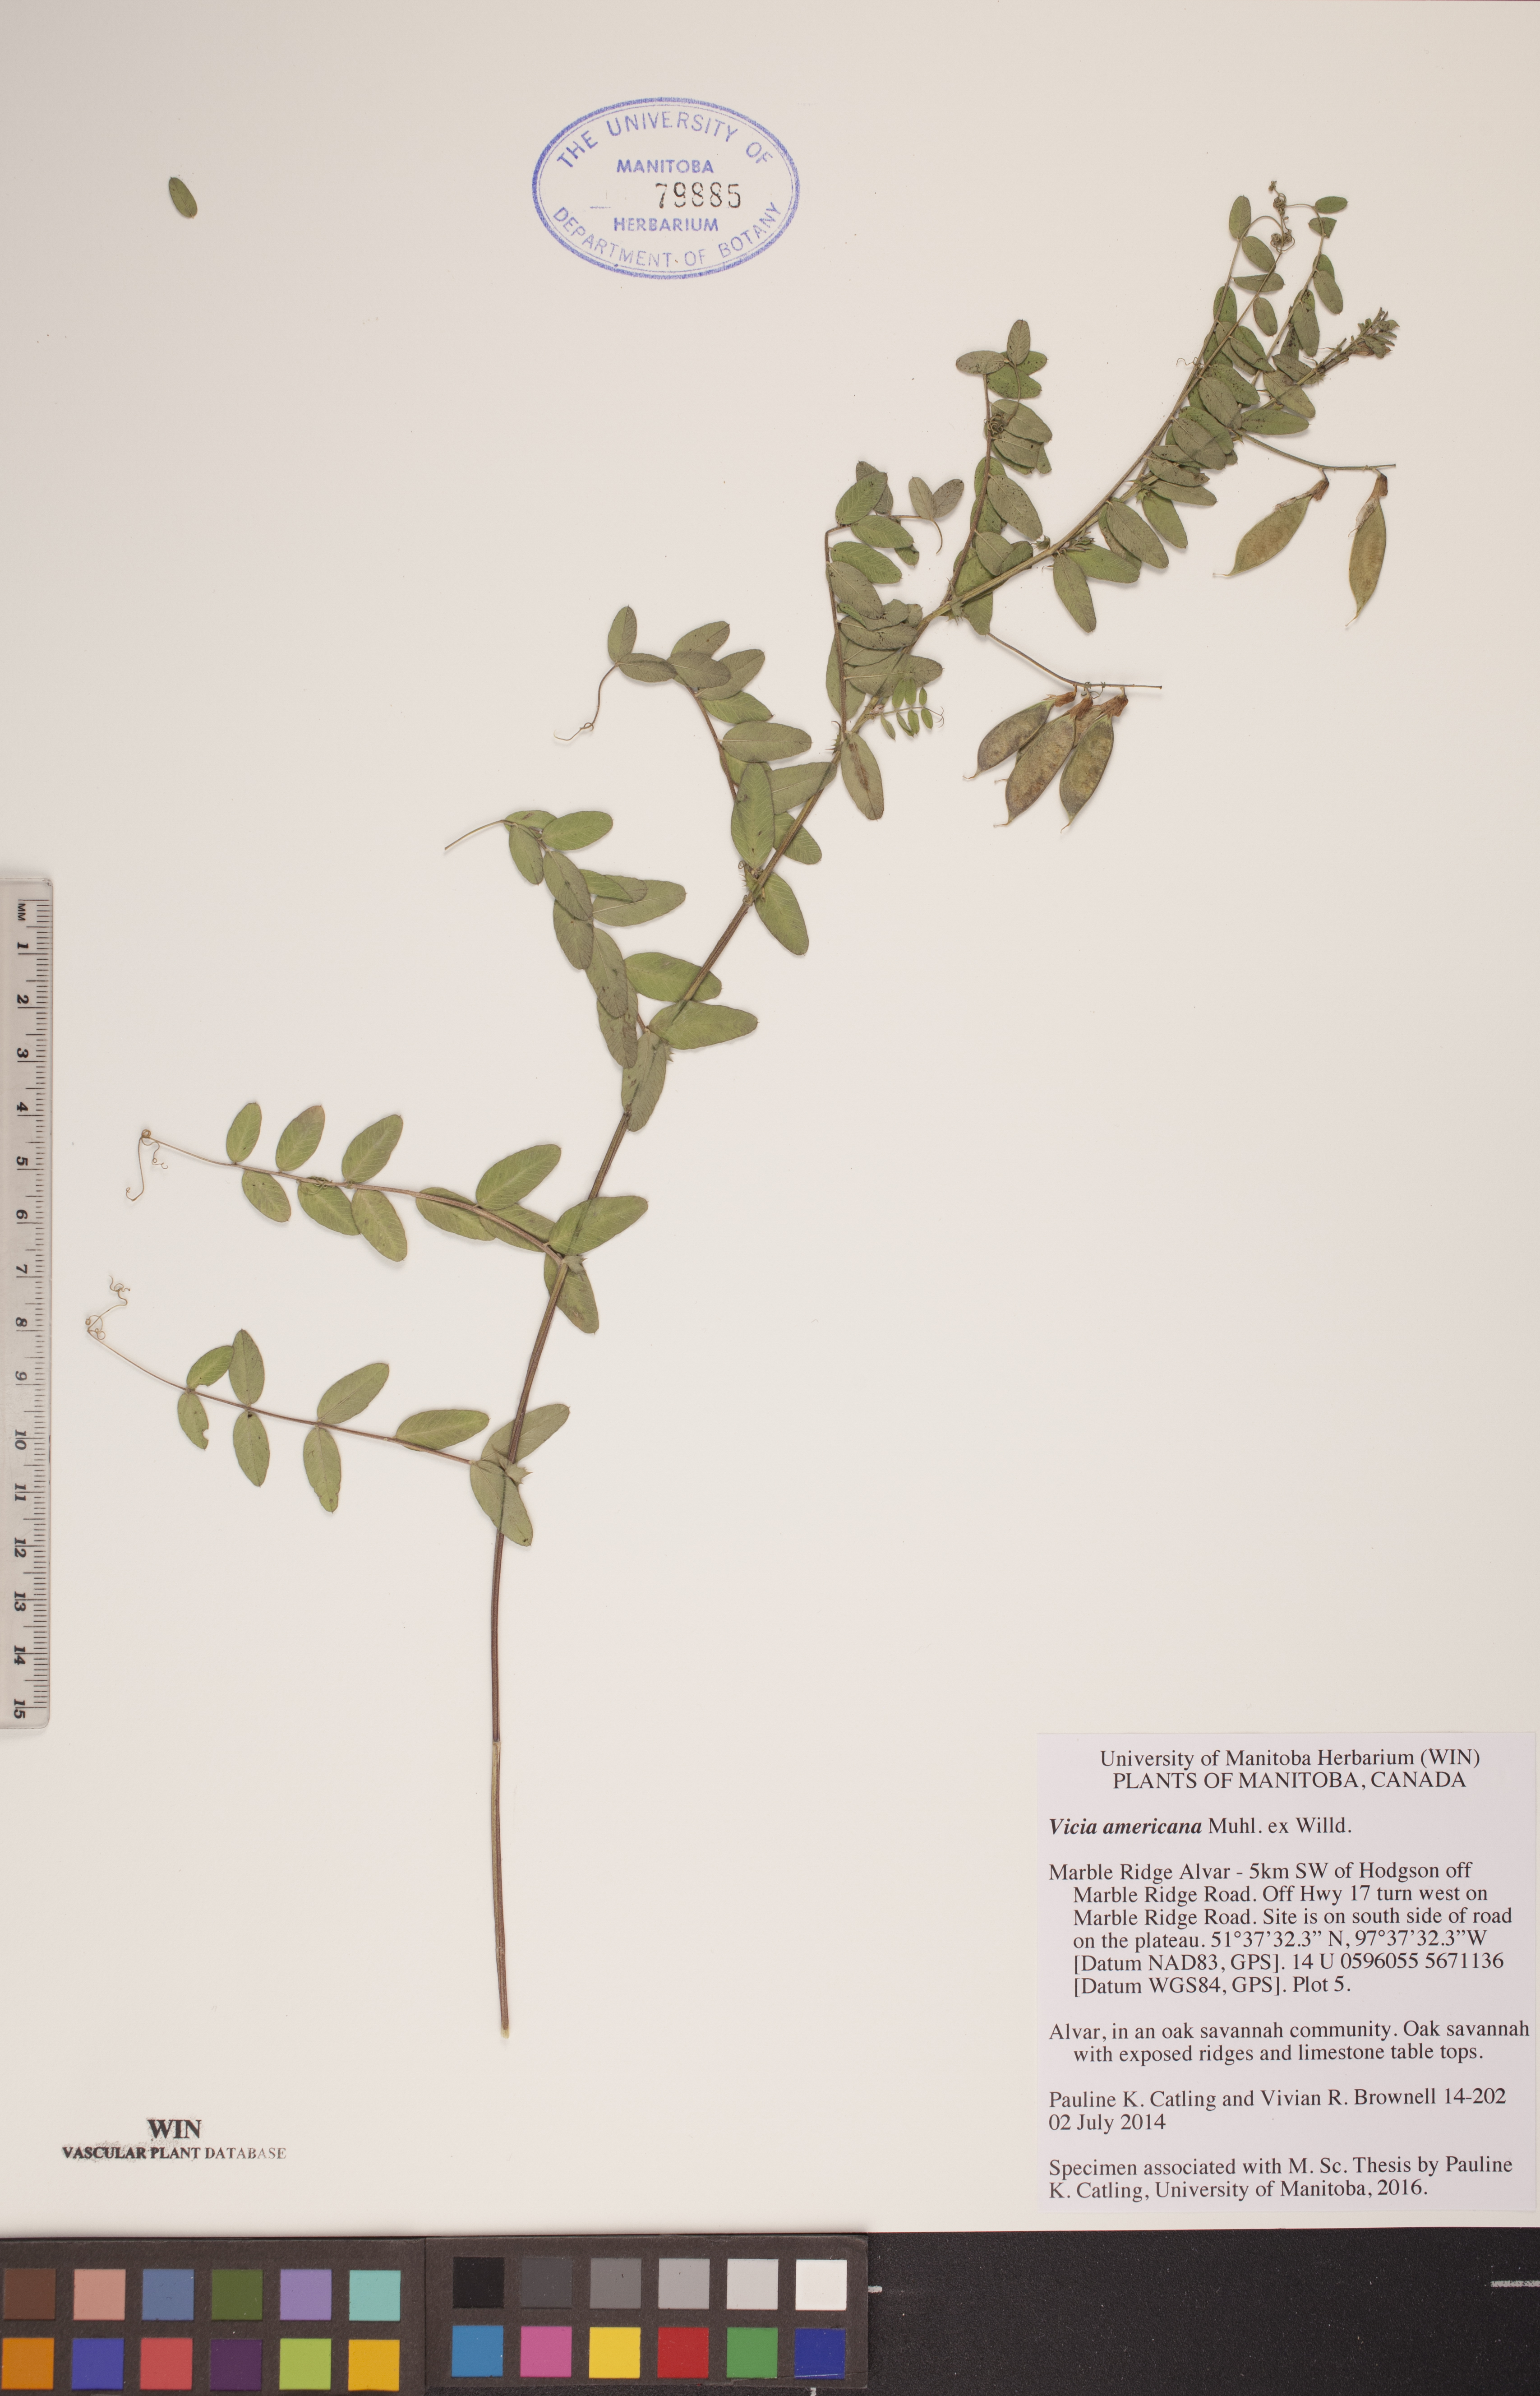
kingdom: Plantae
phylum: Tracheophyta
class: Magnoliopsida
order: Fabales
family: Fabaceae
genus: Vicia
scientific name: Vicia americana
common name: American vetch
